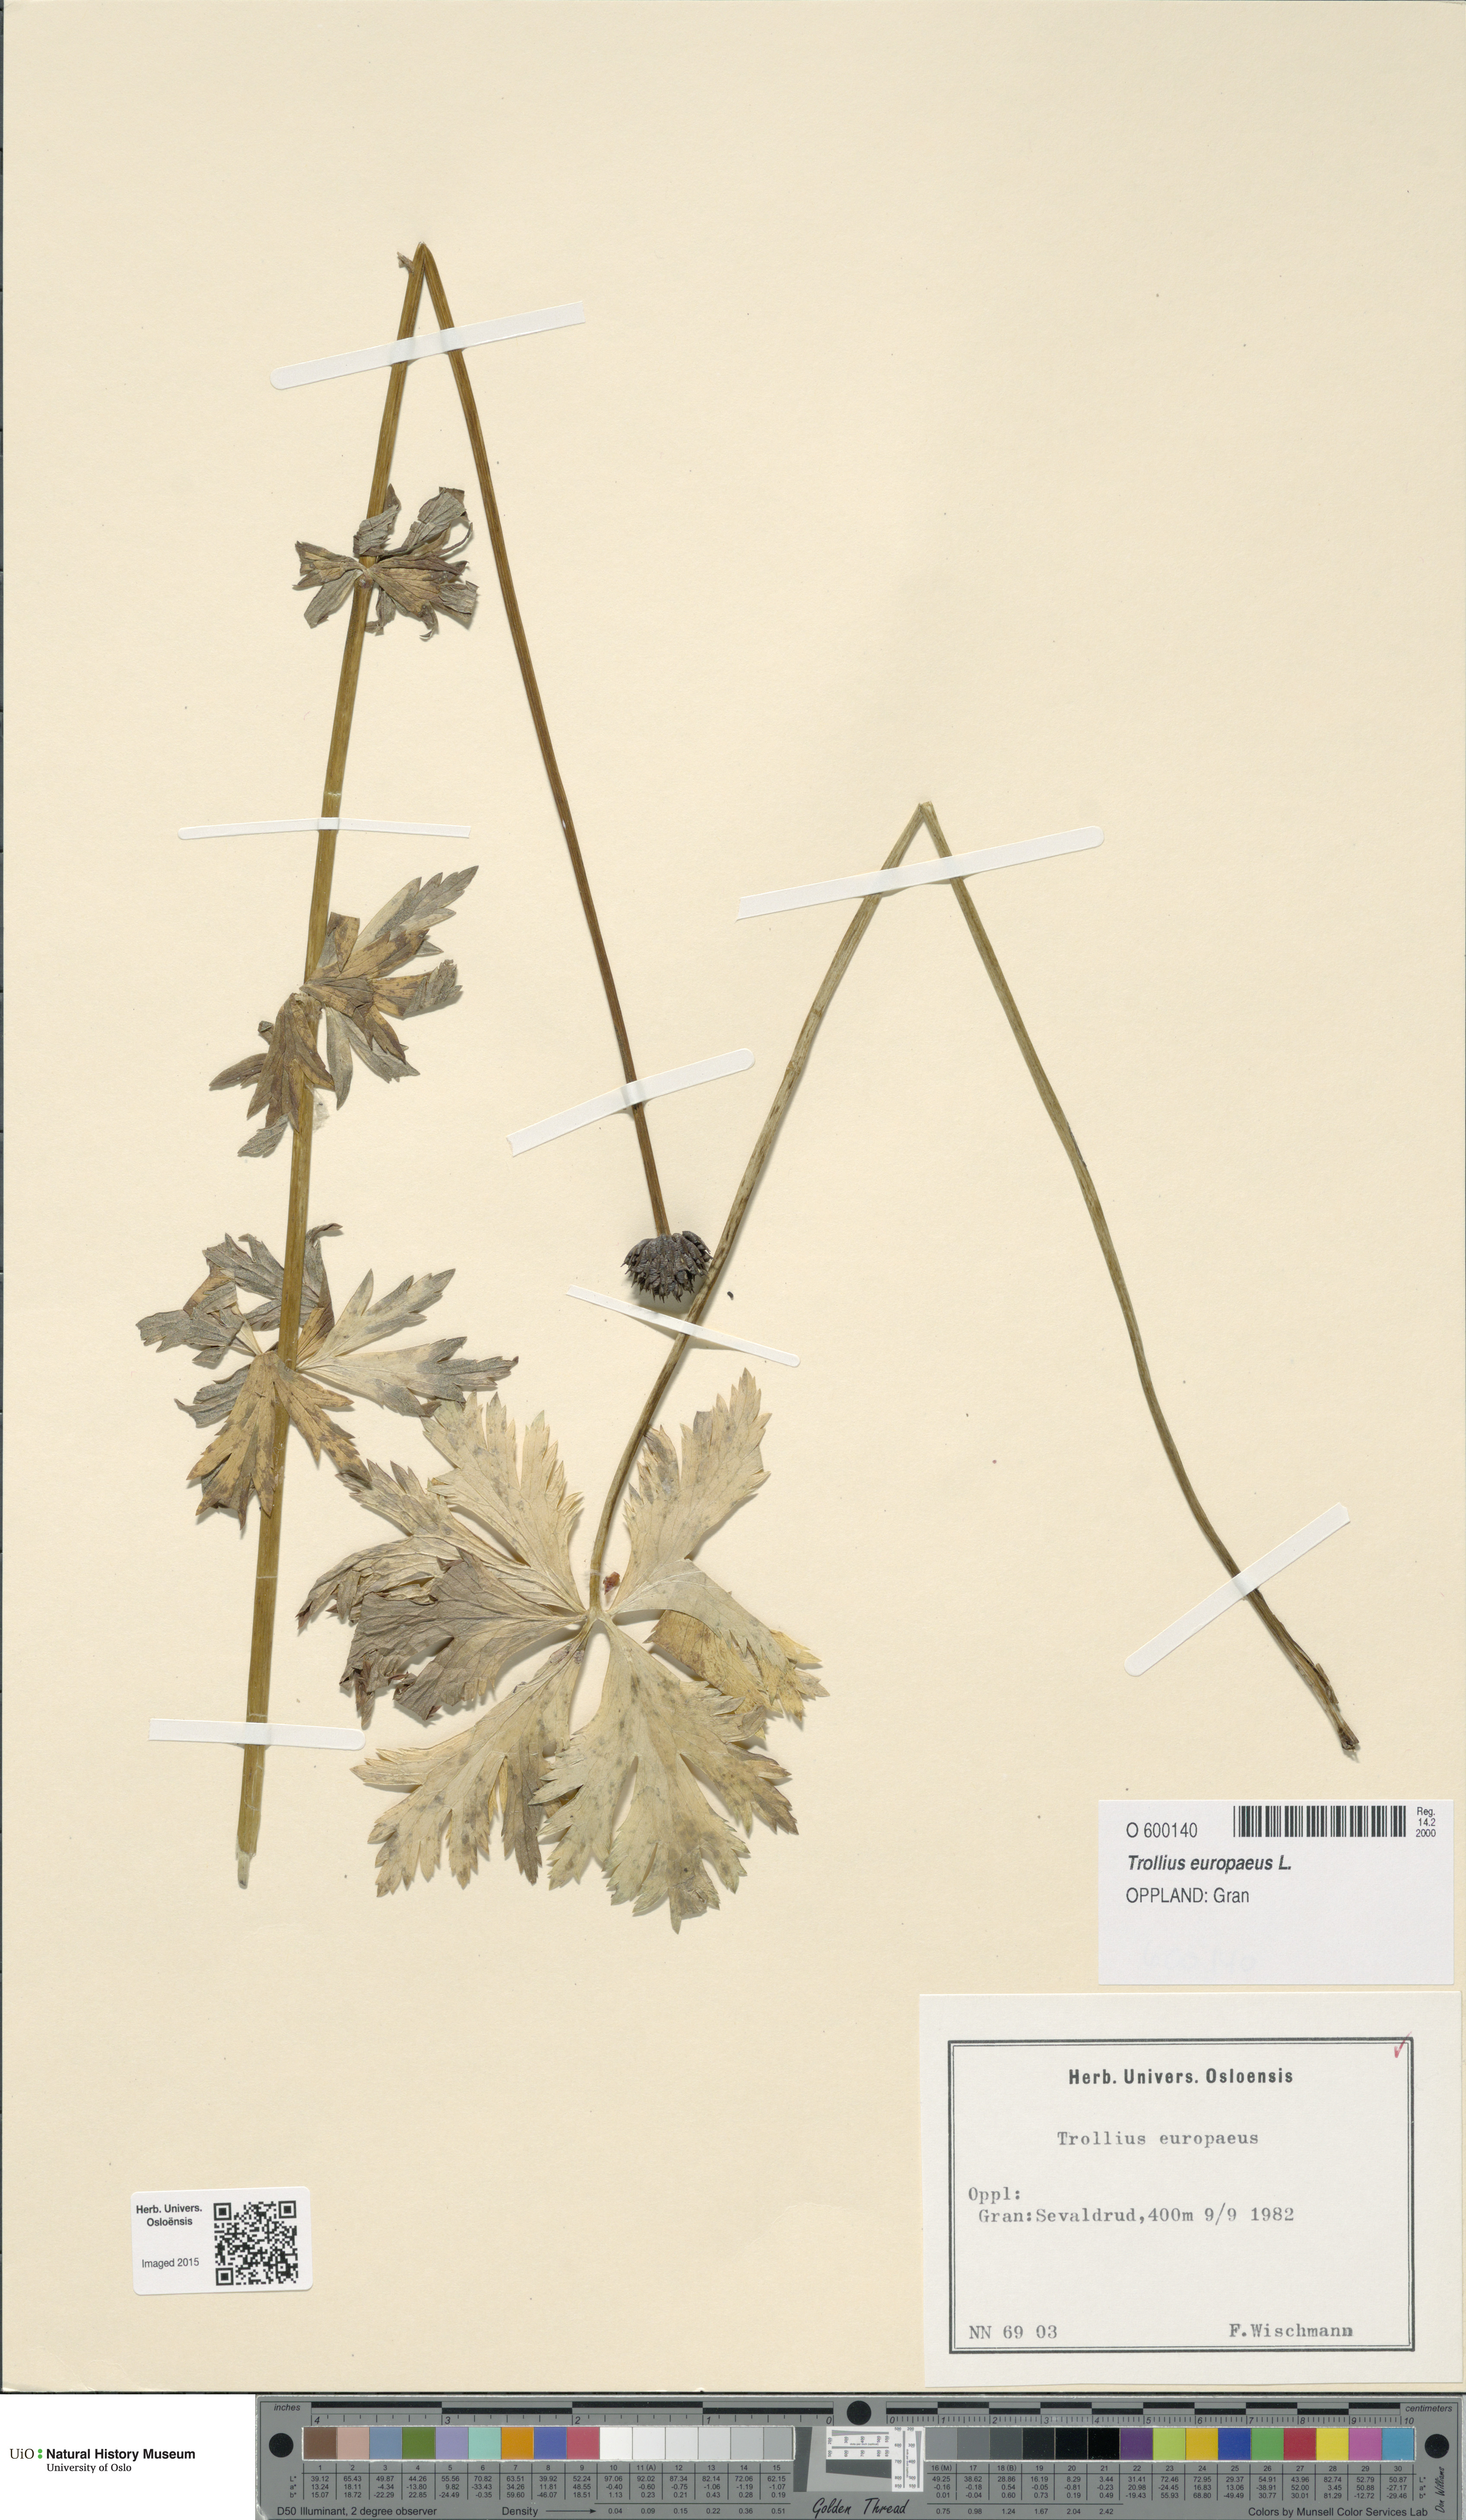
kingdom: Plantae
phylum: Tracheophyta
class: Magnoliopsida
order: Ranunculales
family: Ranunculaceae
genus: Trollius
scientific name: Trollius europaeus
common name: European globeflower
